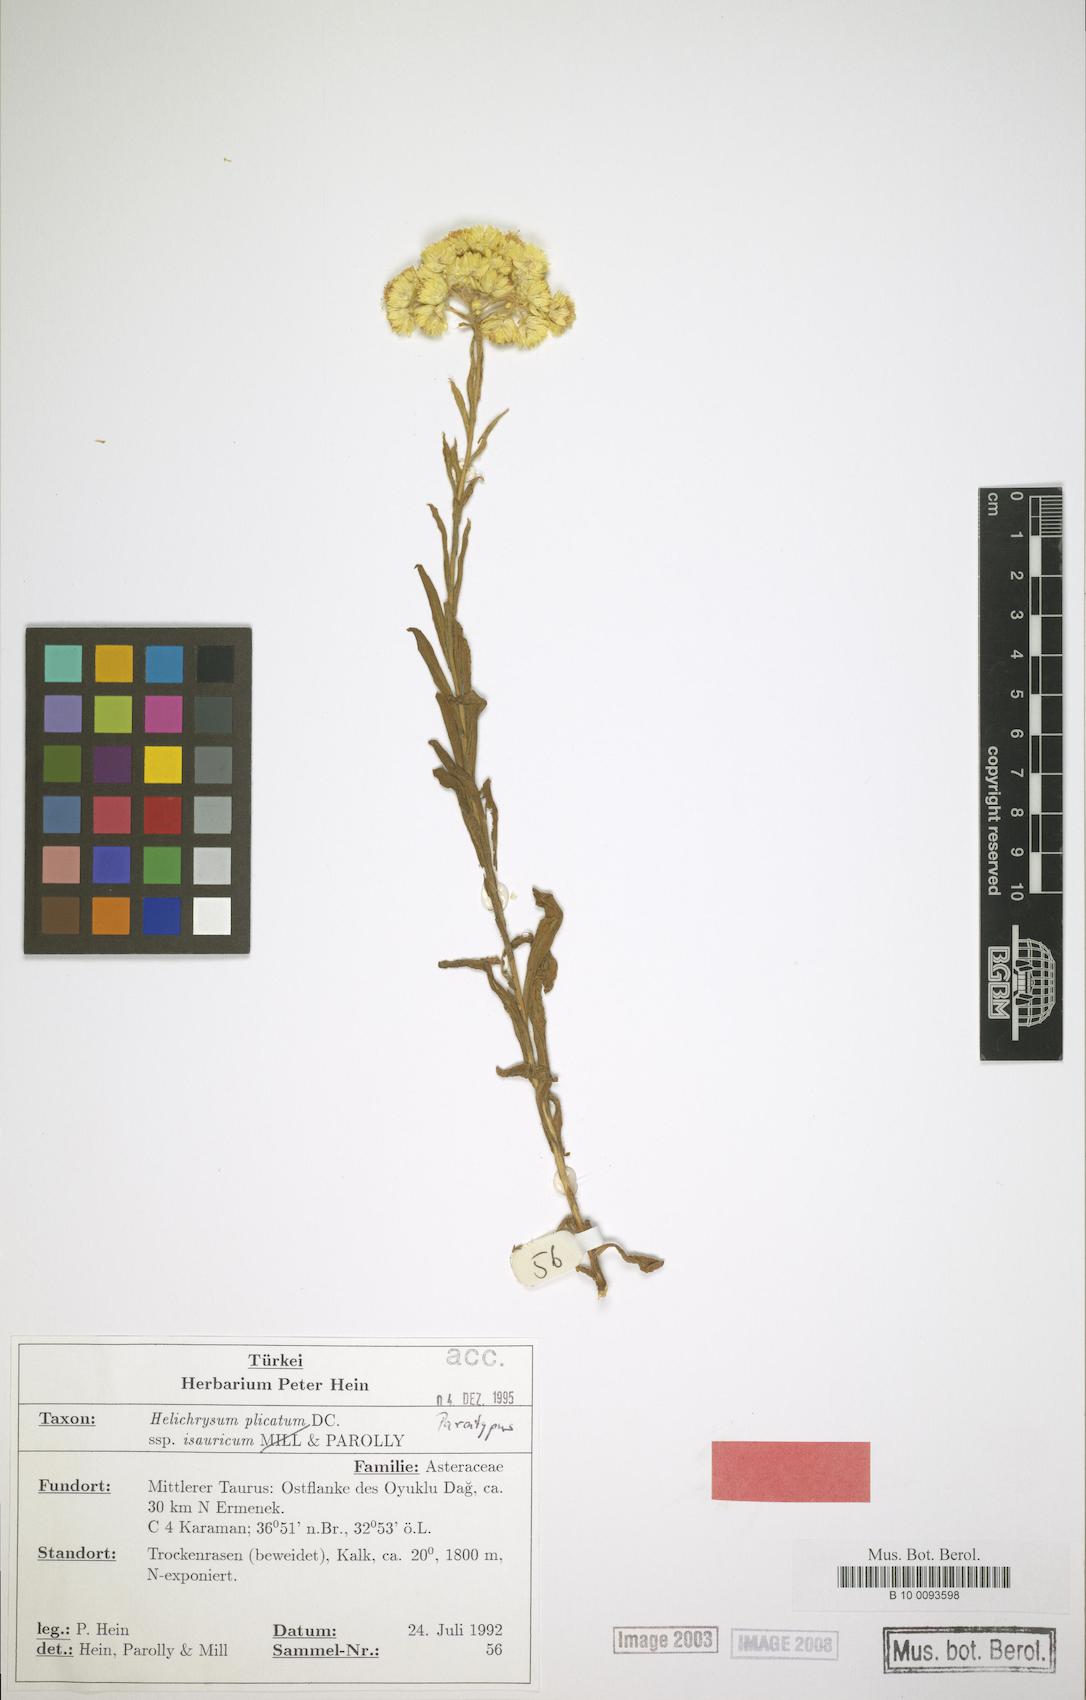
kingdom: Plantae
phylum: Tracheophyta
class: Magnoliopsida
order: Asterales
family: Asteraceae
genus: Helichrysum
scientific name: Helichrysum plicatum
